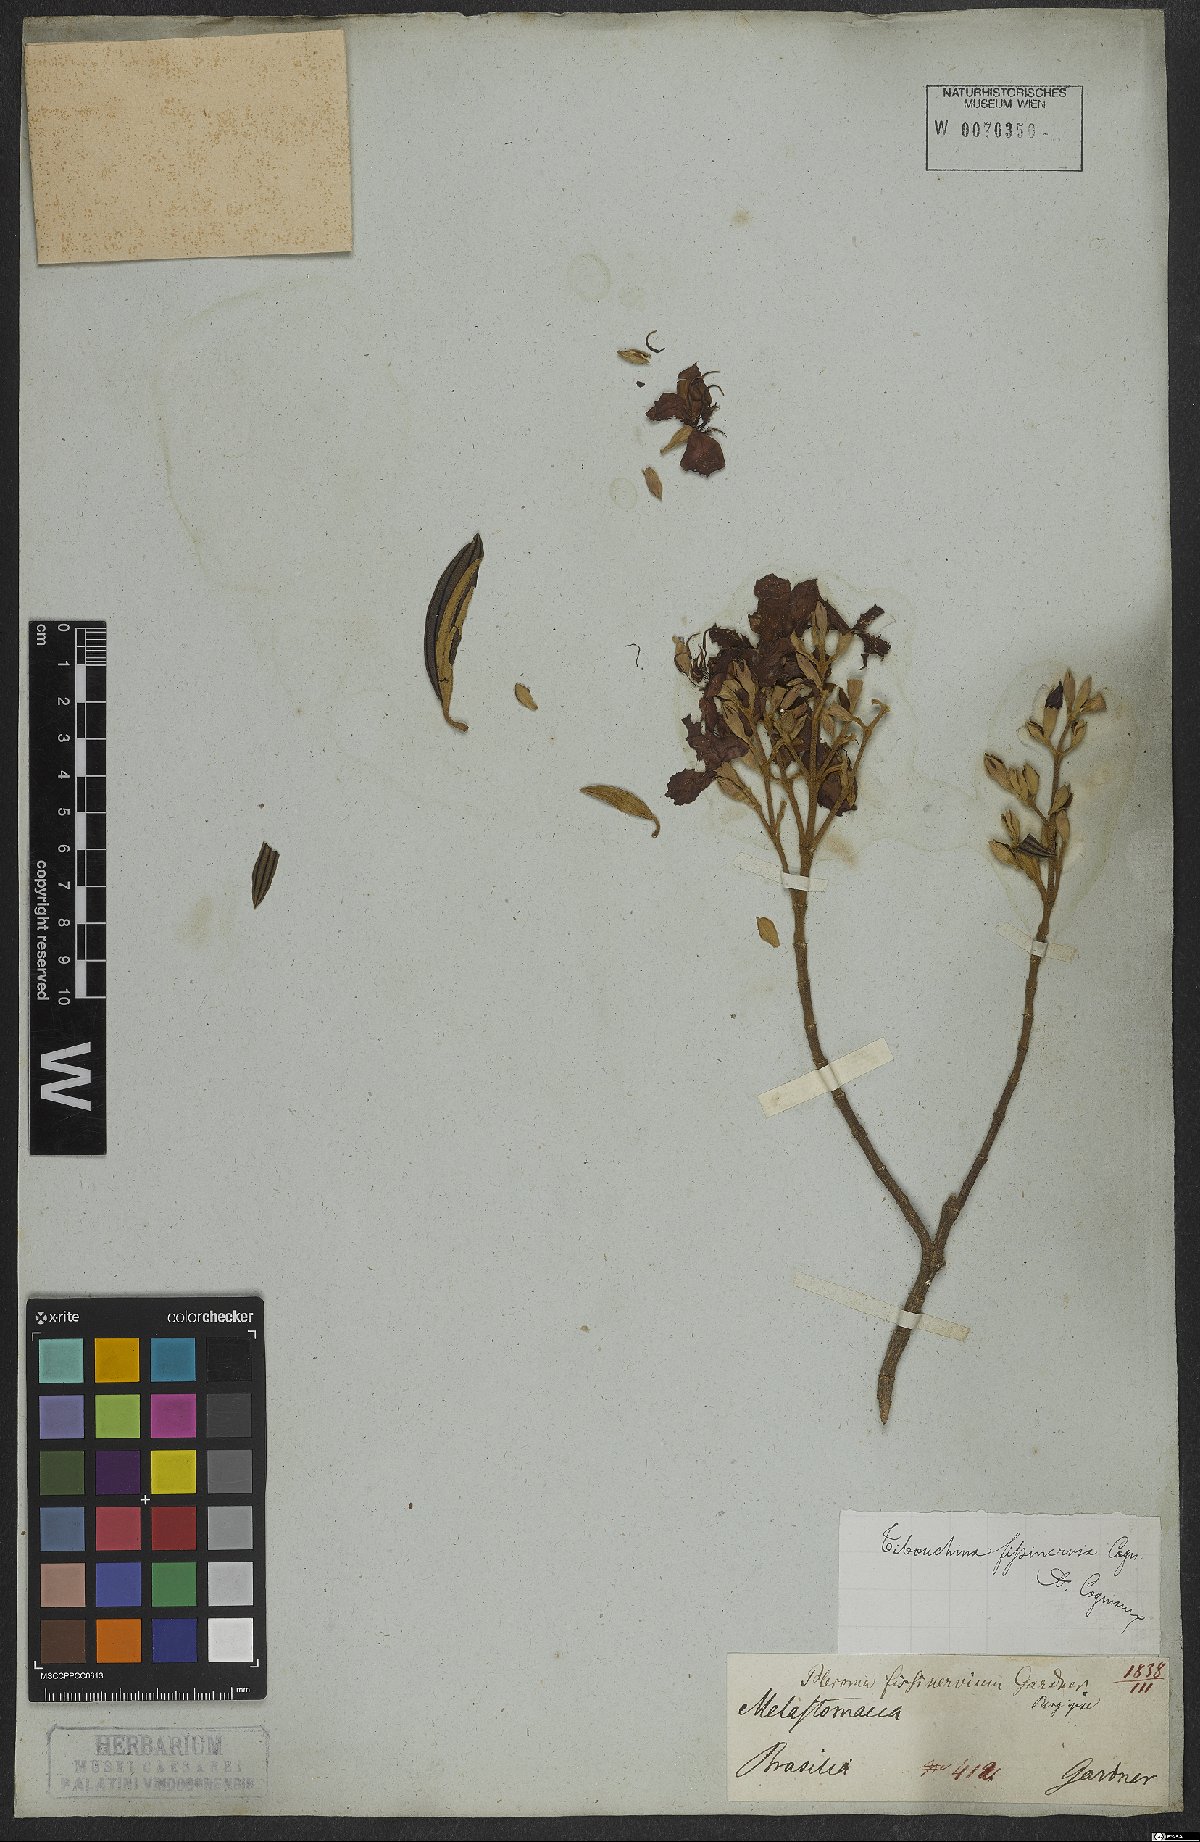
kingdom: Plantae
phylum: Tracheophyta
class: Magnoliopsida
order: Myrtales
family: Melastomataceae
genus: Pleroma
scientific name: Pleroma fissinervium
